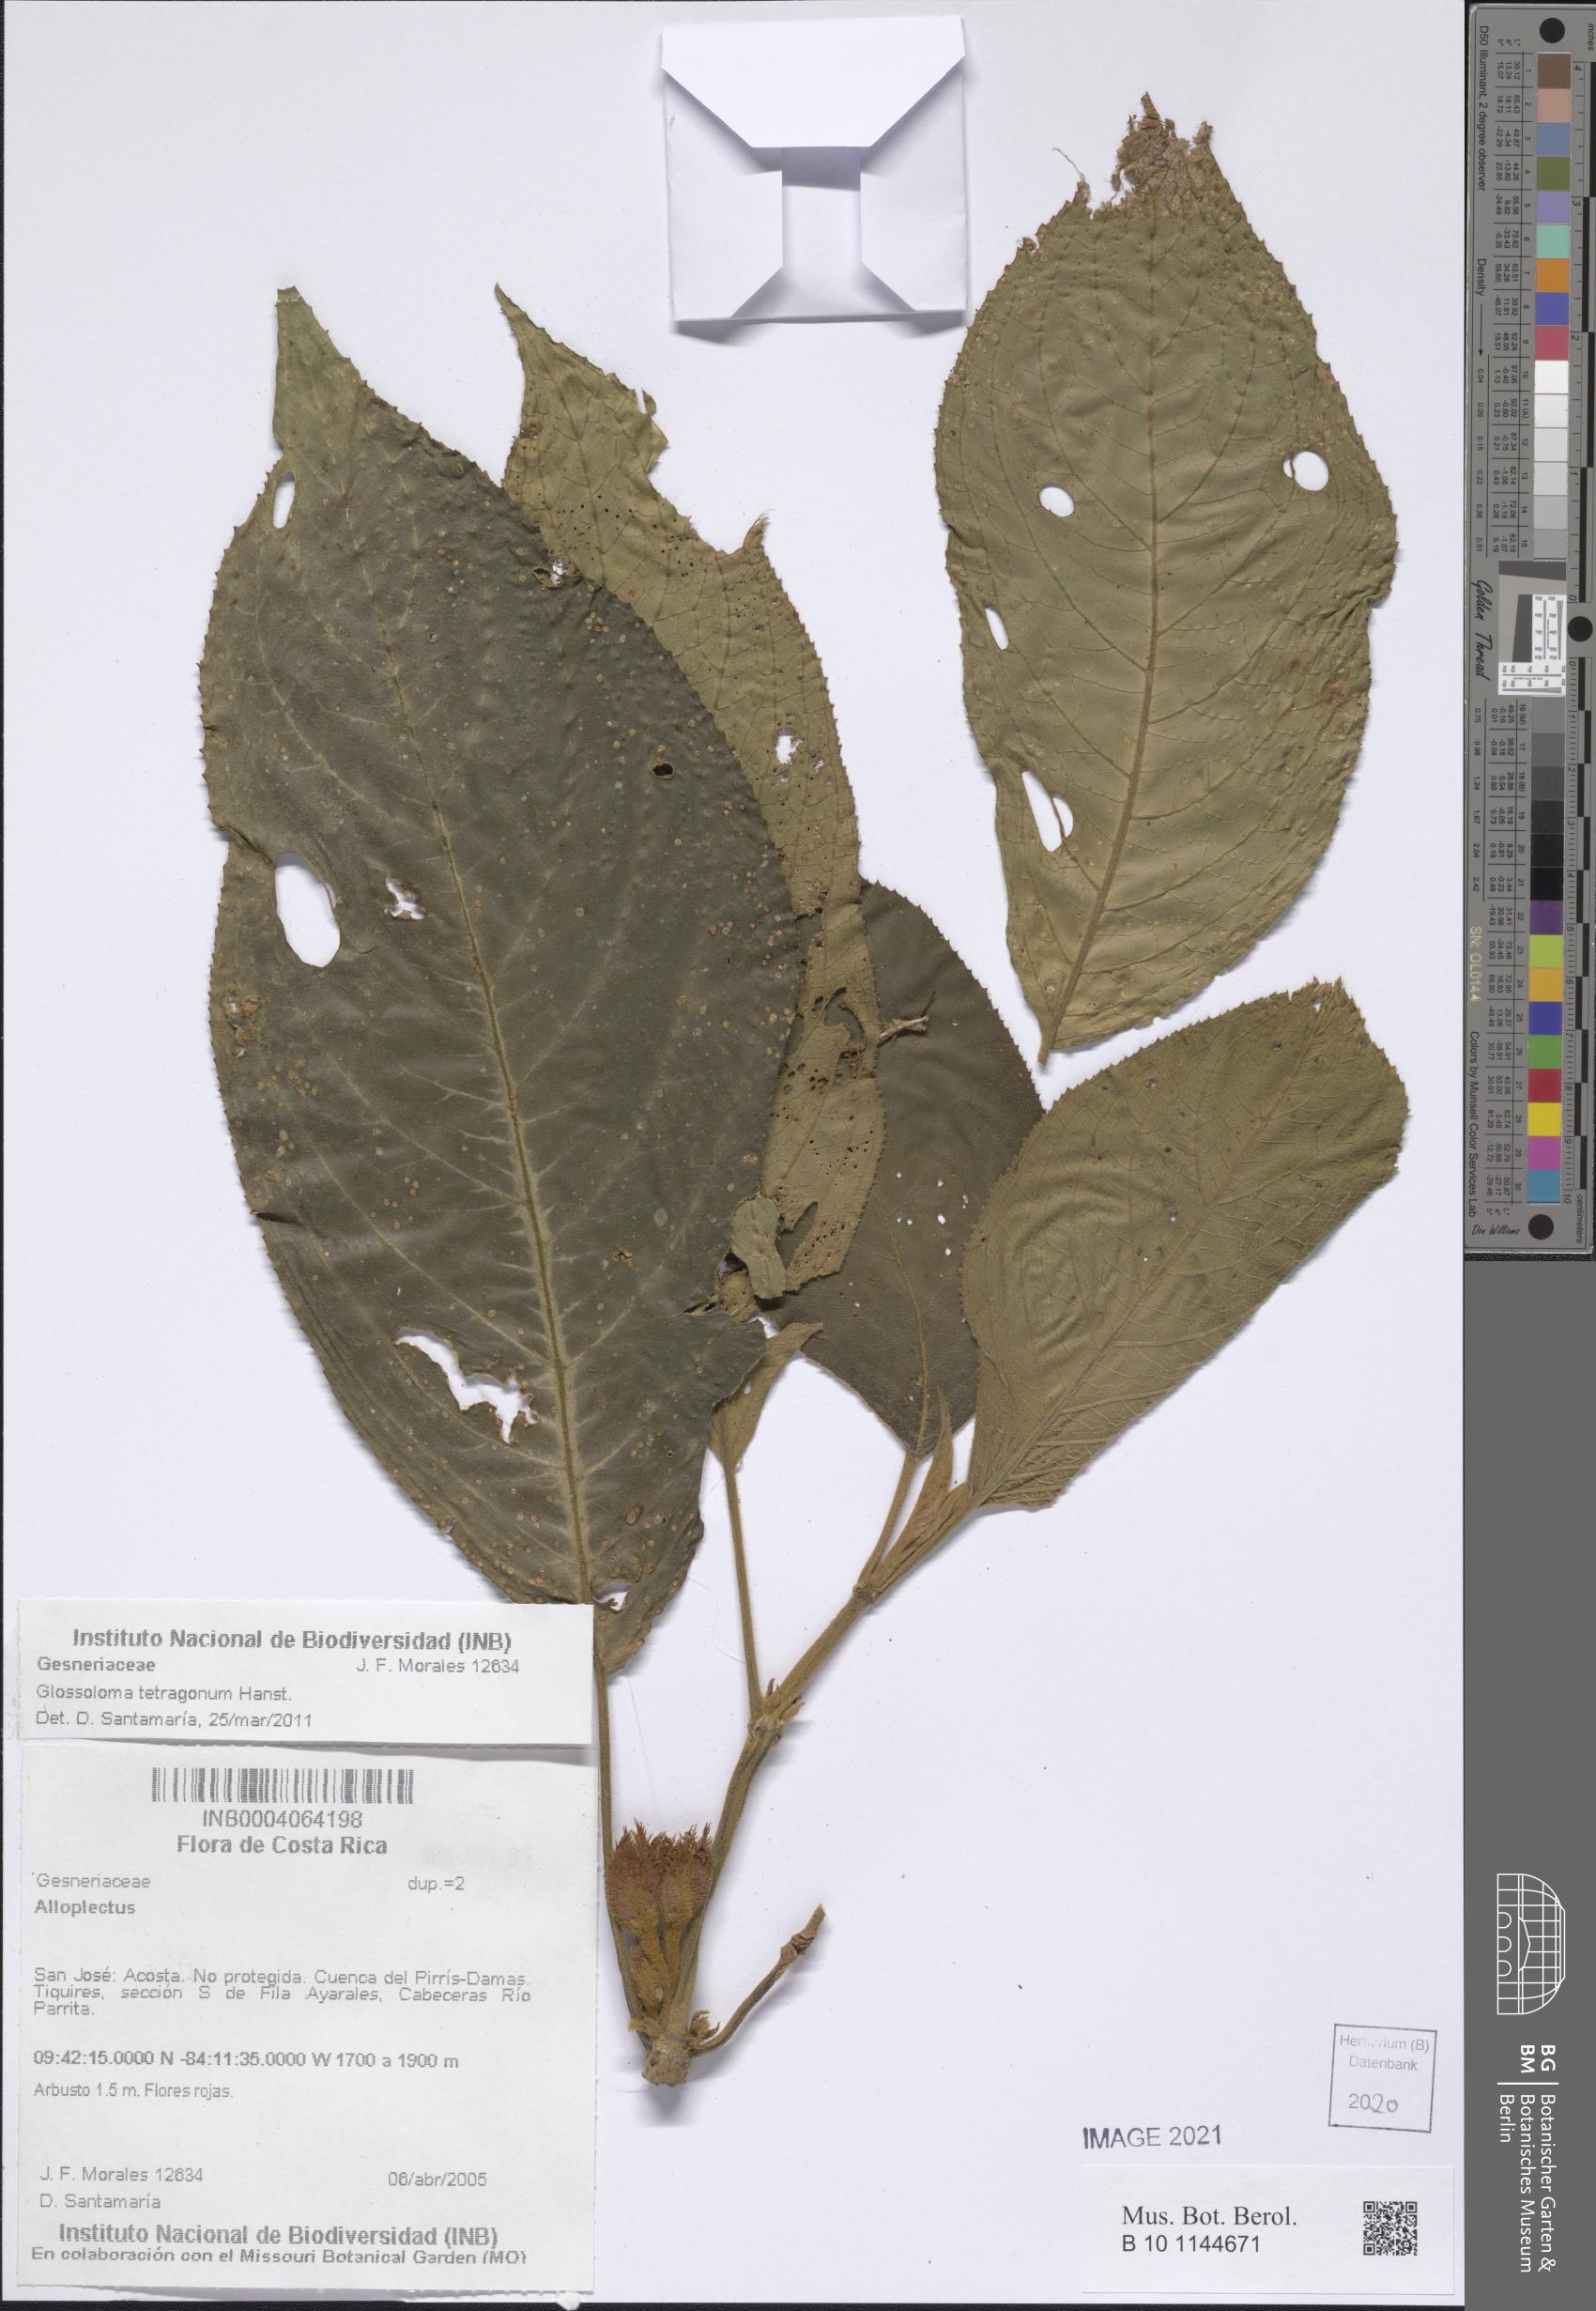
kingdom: Plantae
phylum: Tracheophyta
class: Magnoliopsida
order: Lamiales
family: Gesneriaceae
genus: Alloplectus
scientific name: Alloplectus
